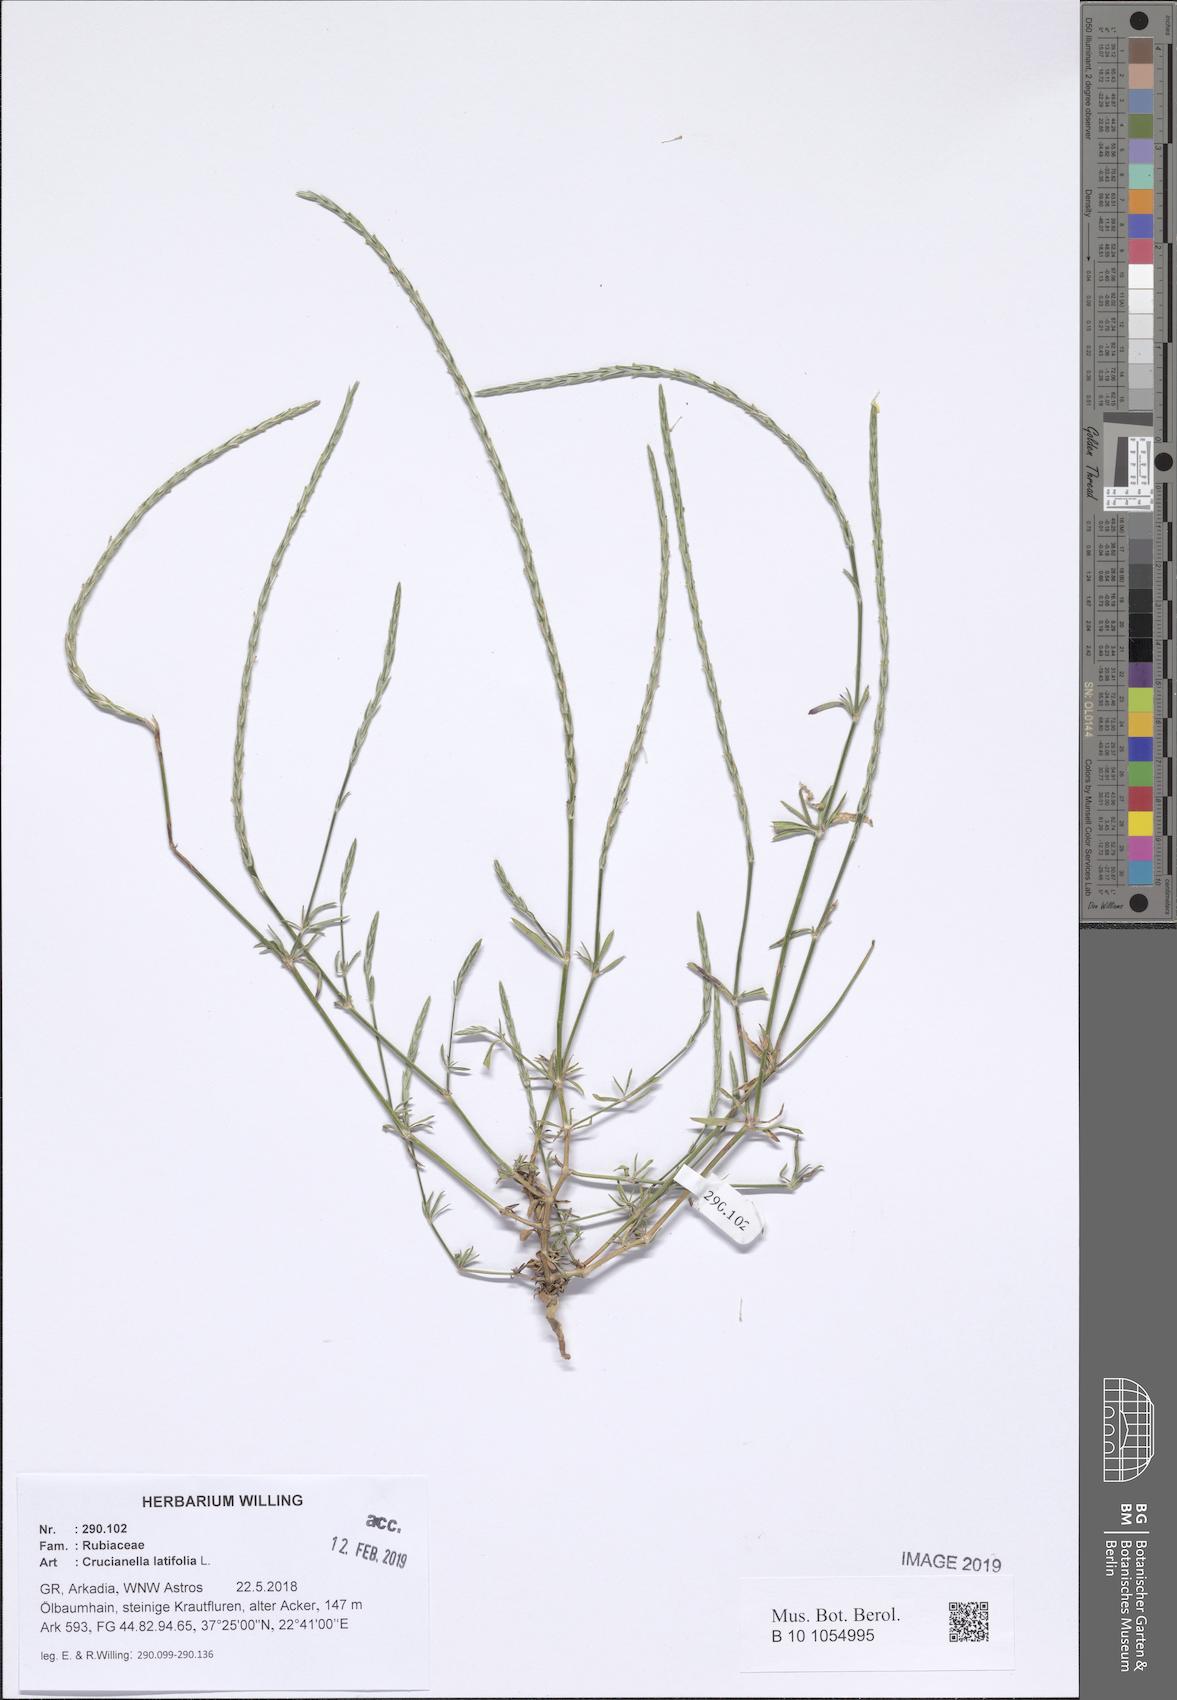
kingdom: Plantae
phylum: Tracheophyta
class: Magnoliopsida
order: Gentianales
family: Rubiaceae
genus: Crucianella
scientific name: Crucianella latifolia
